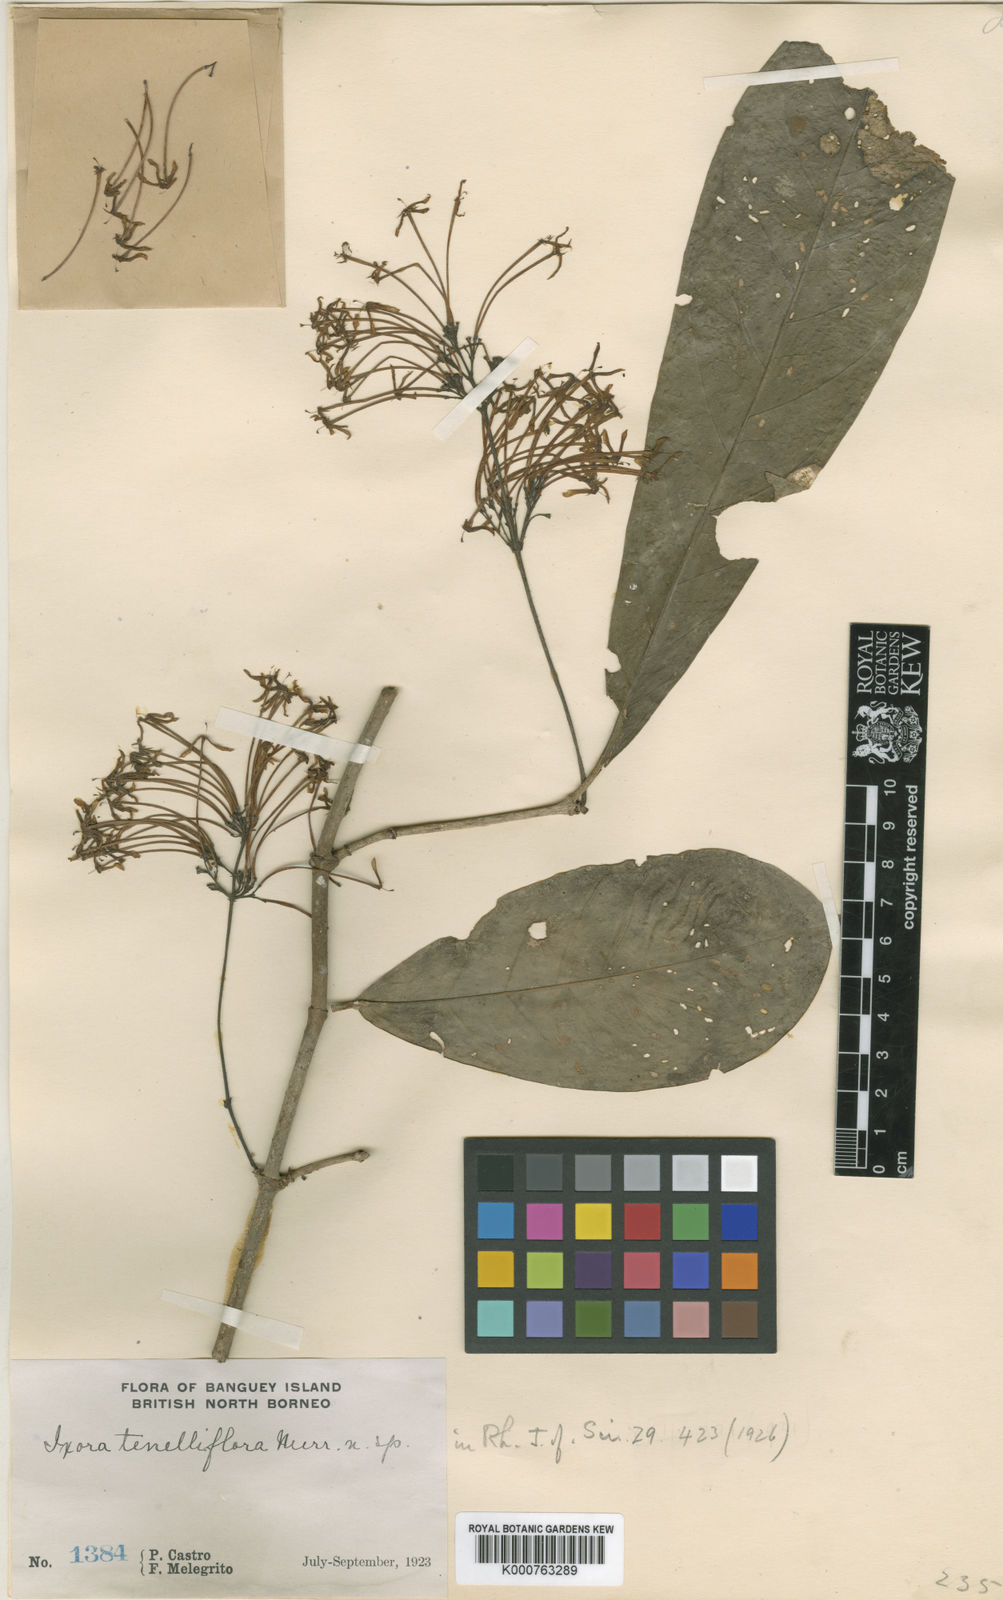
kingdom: Plantae
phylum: Tracheophyta
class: Magnoliopsida
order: Gentianales
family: Rubiaceae
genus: Ixora
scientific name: Ixora lunutica
